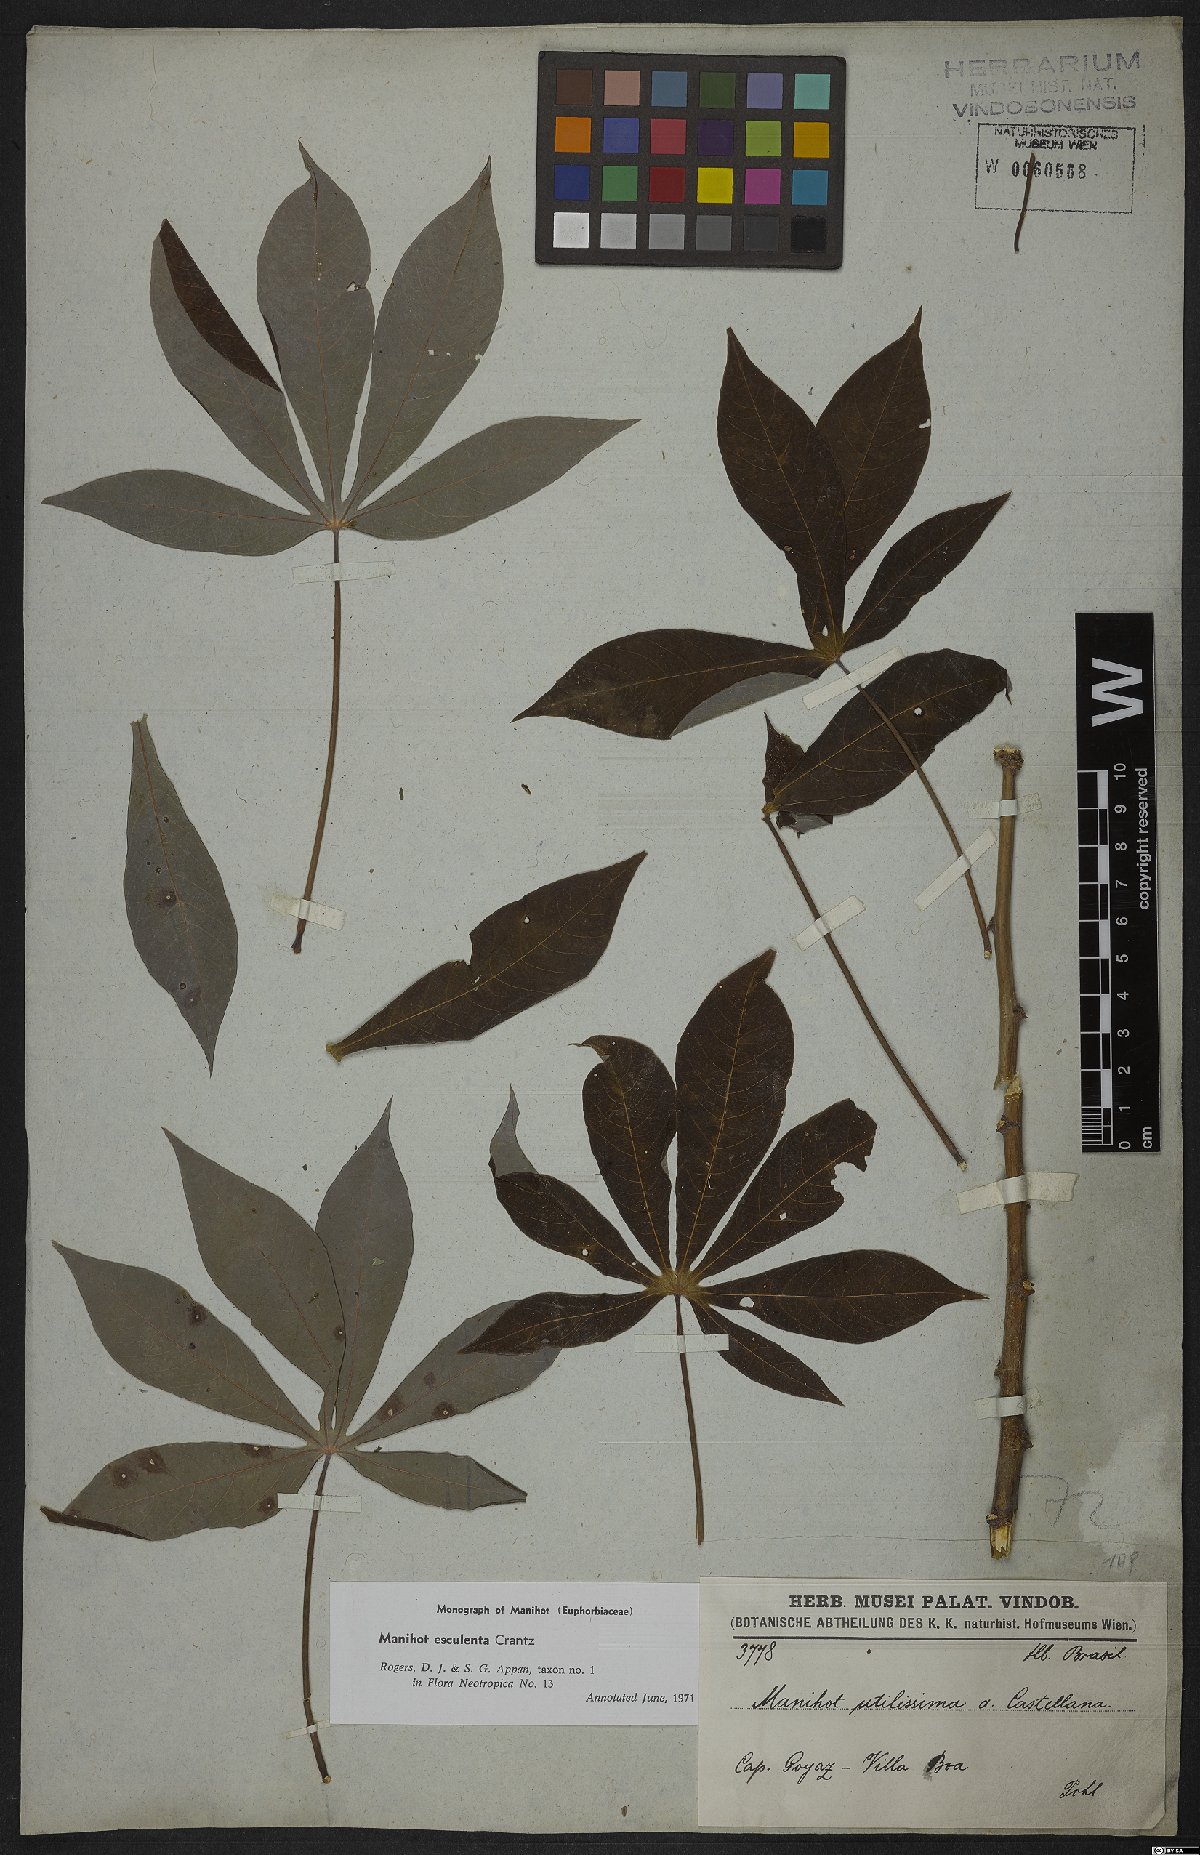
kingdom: Plantae
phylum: Tracheophyta
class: Magnoliopsida
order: Malpighiales
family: Euphorbiaceae
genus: Manihot
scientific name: Manihot esculenta
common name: Cassava
